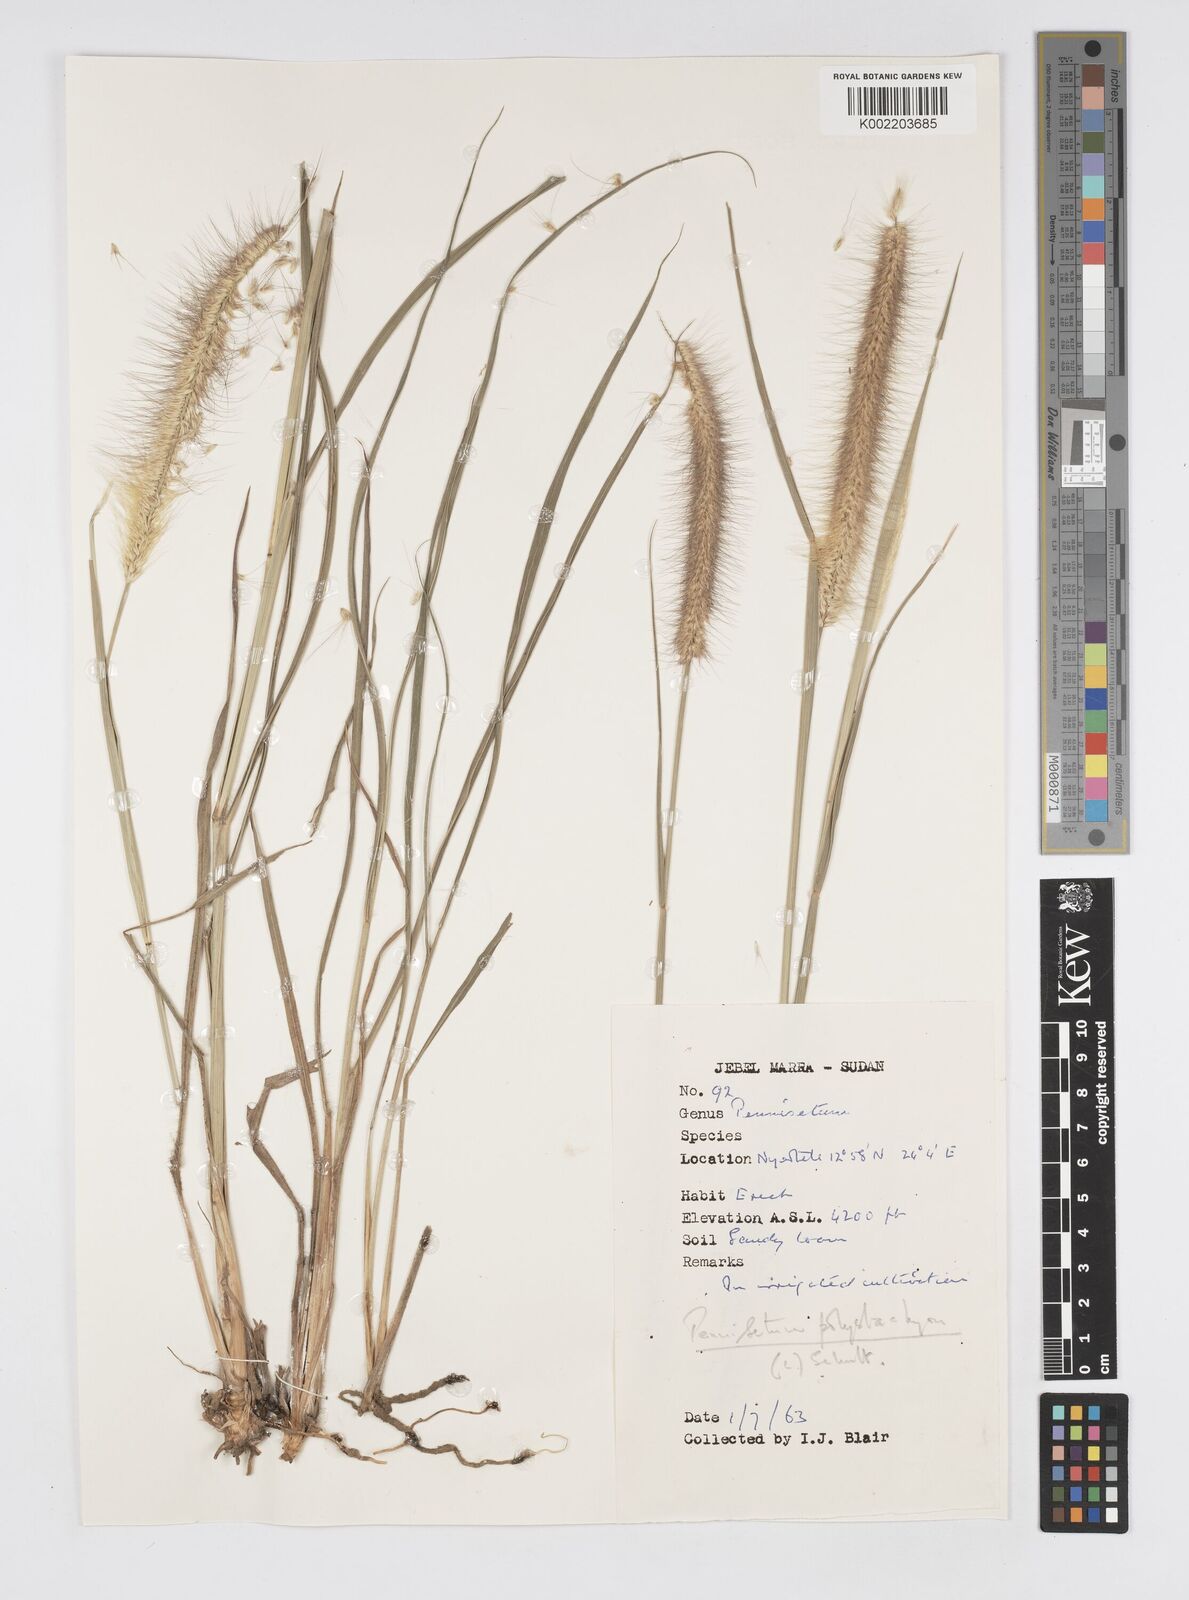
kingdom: Plantae
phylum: Tracheophyta
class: Liliopsida
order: Poales
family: Poaceae
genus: Setaria
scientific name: Setaria parviflora
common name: Knotroot bristle-grass
